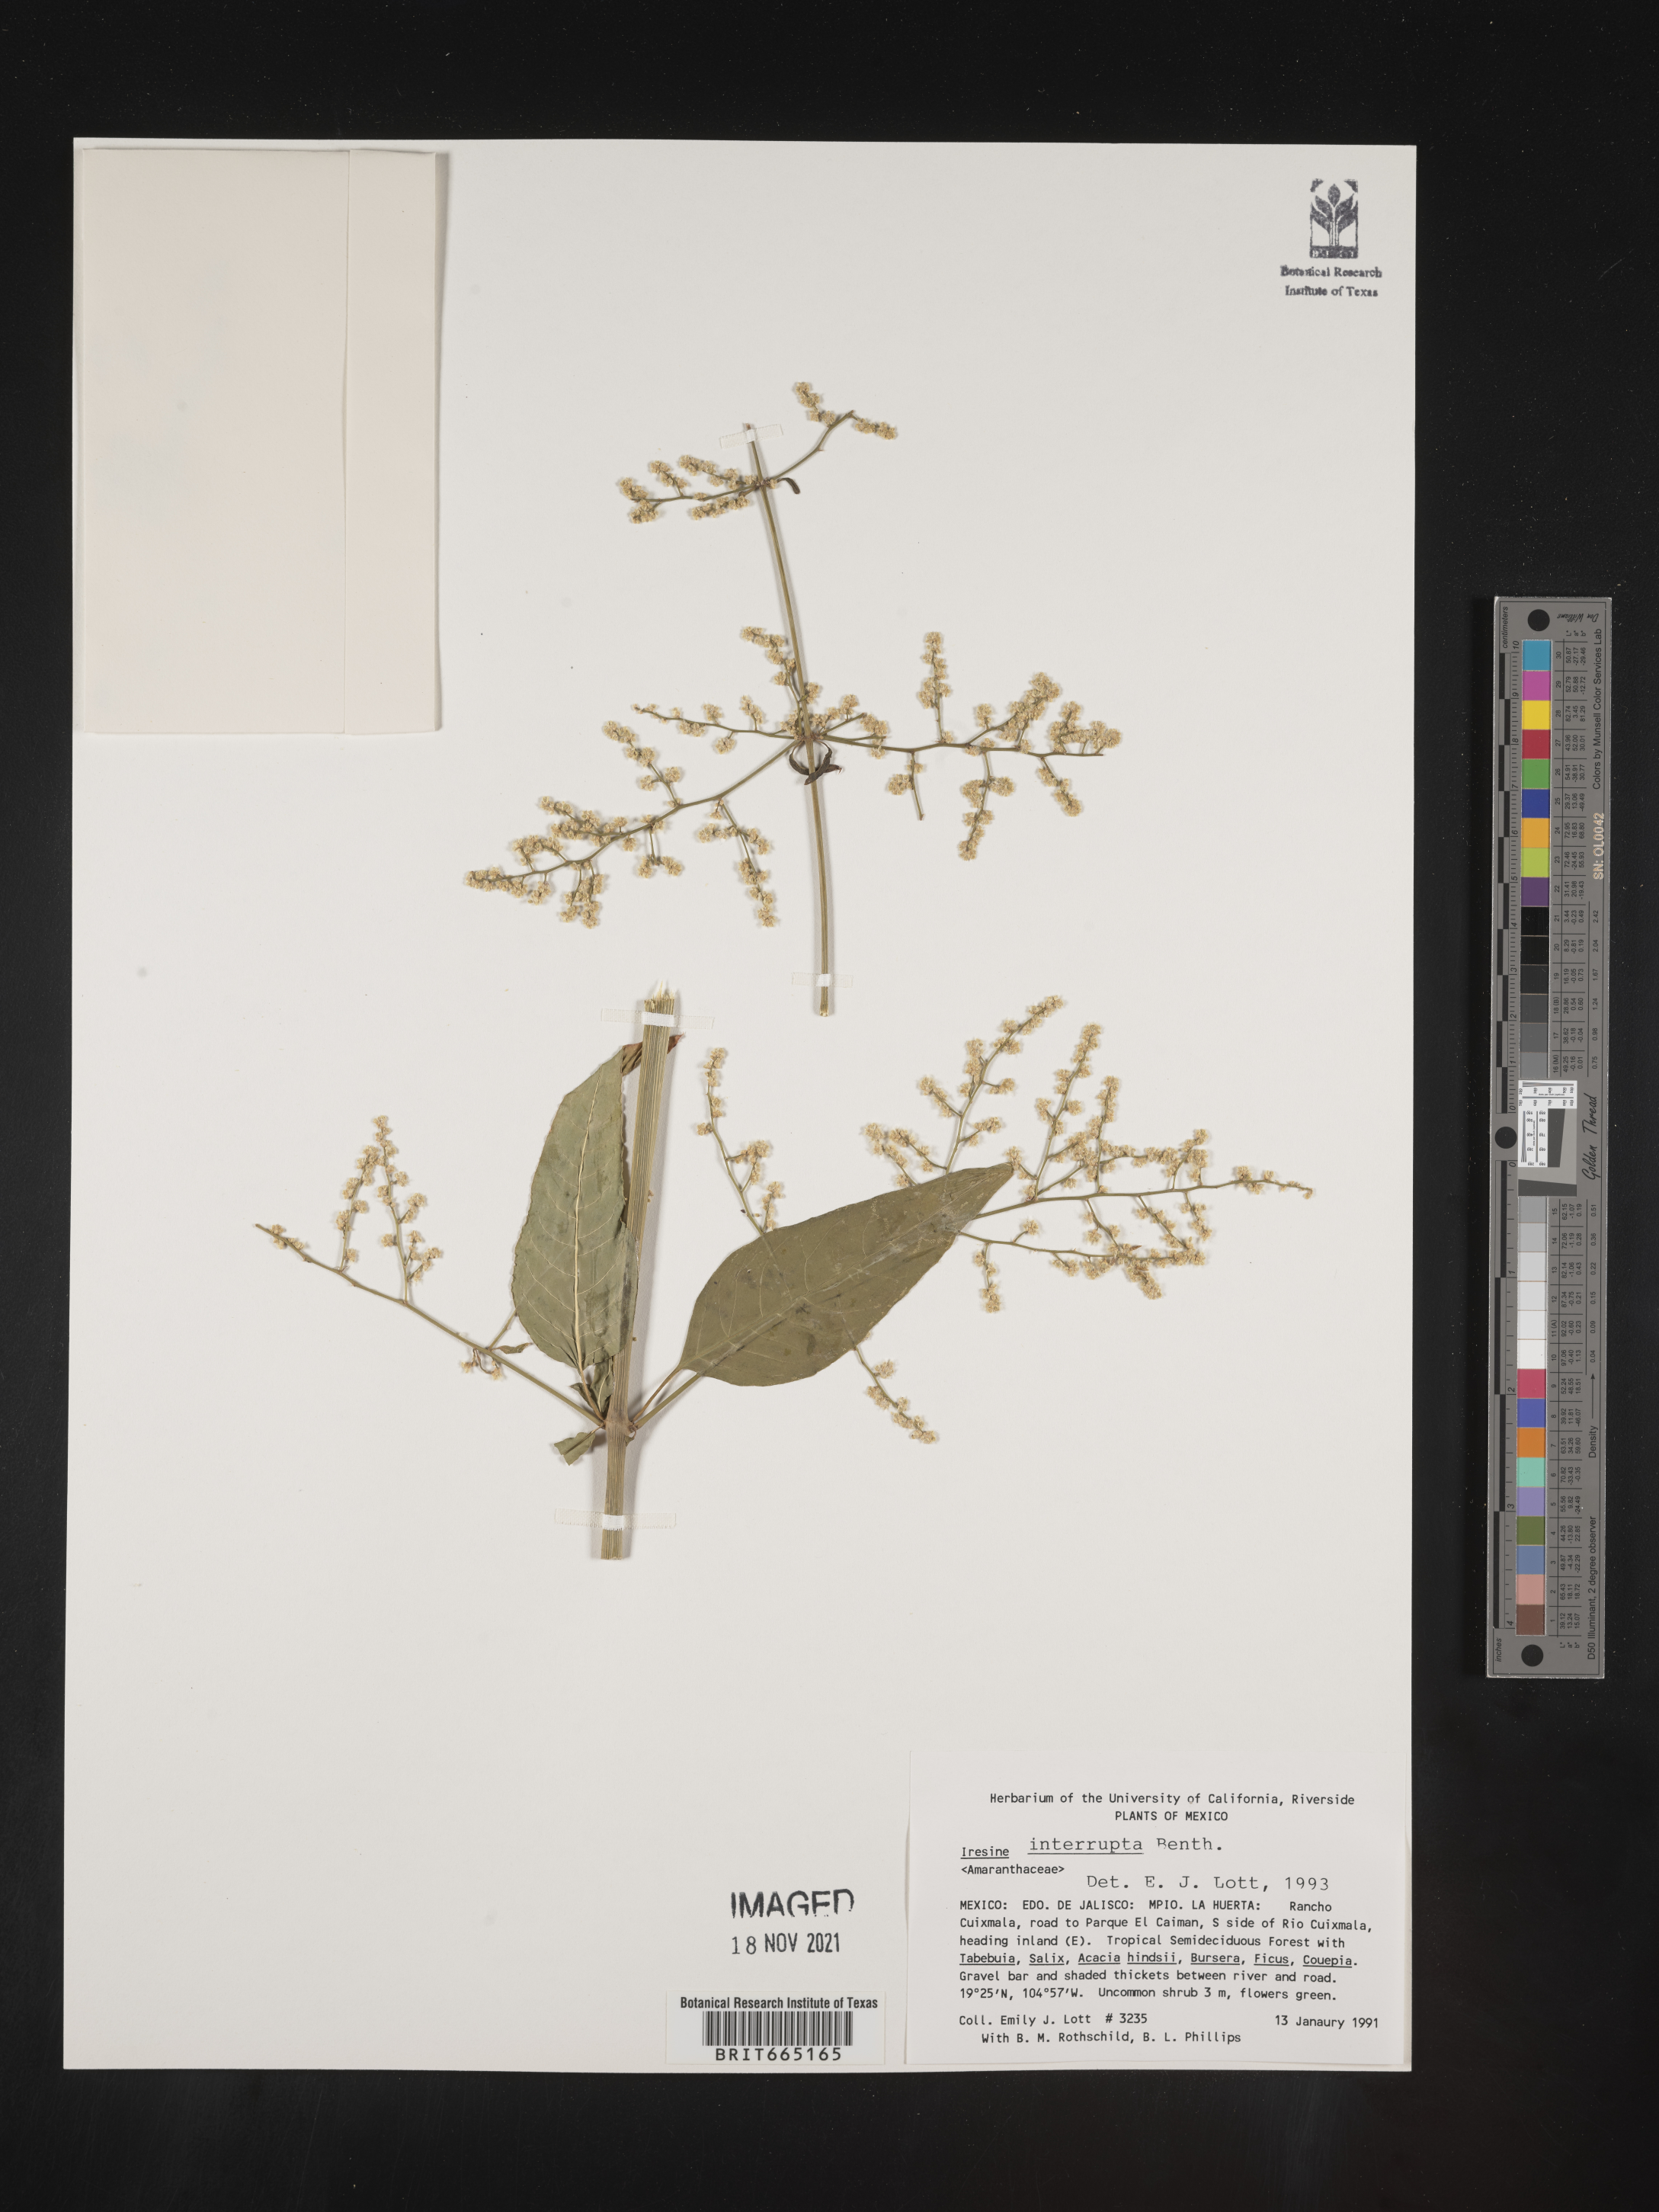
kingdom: Plantae
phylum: Tracheophyta
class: Magnoliopsida
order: Caryophyllales
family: Amaranthaceae
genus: Iresine
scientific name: Iresine
